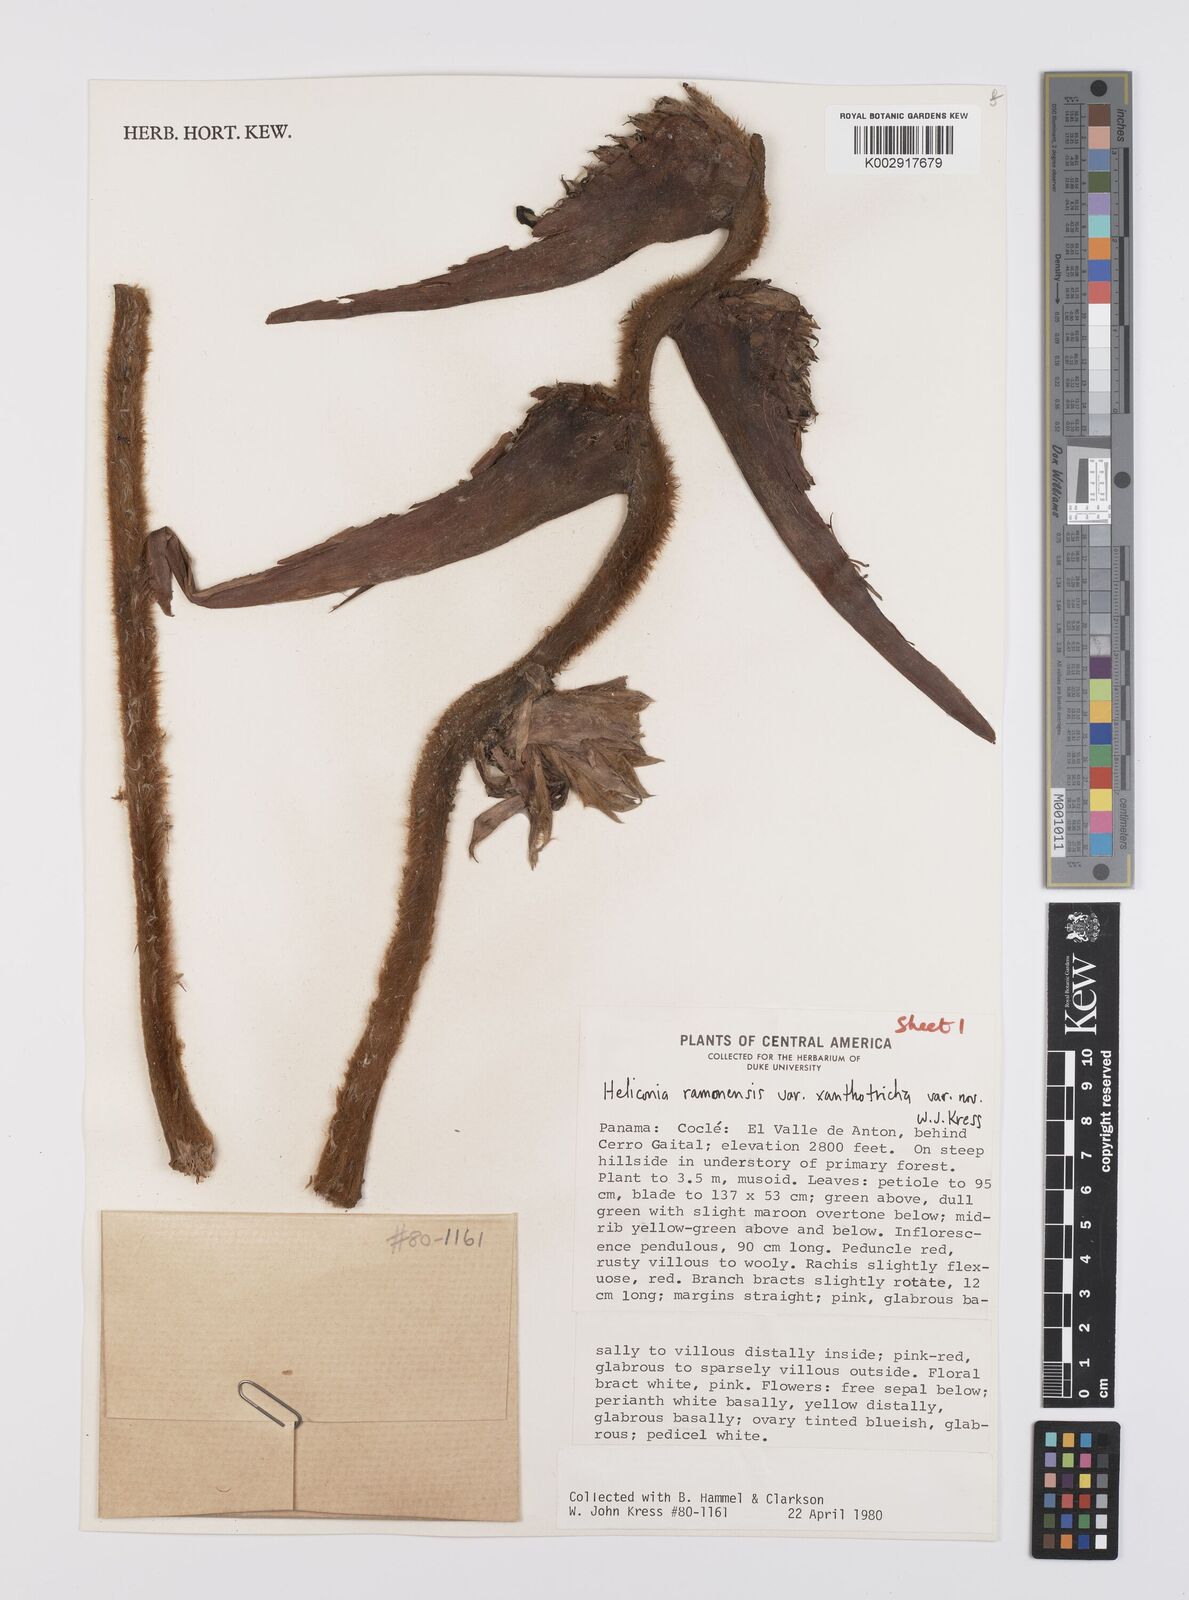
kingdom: Plantae
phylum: Tracheophyta
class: Liliopsida
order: Zingiberales
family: Heliconiaceae
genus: Heliconia
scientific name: Heliconia ramonensis
